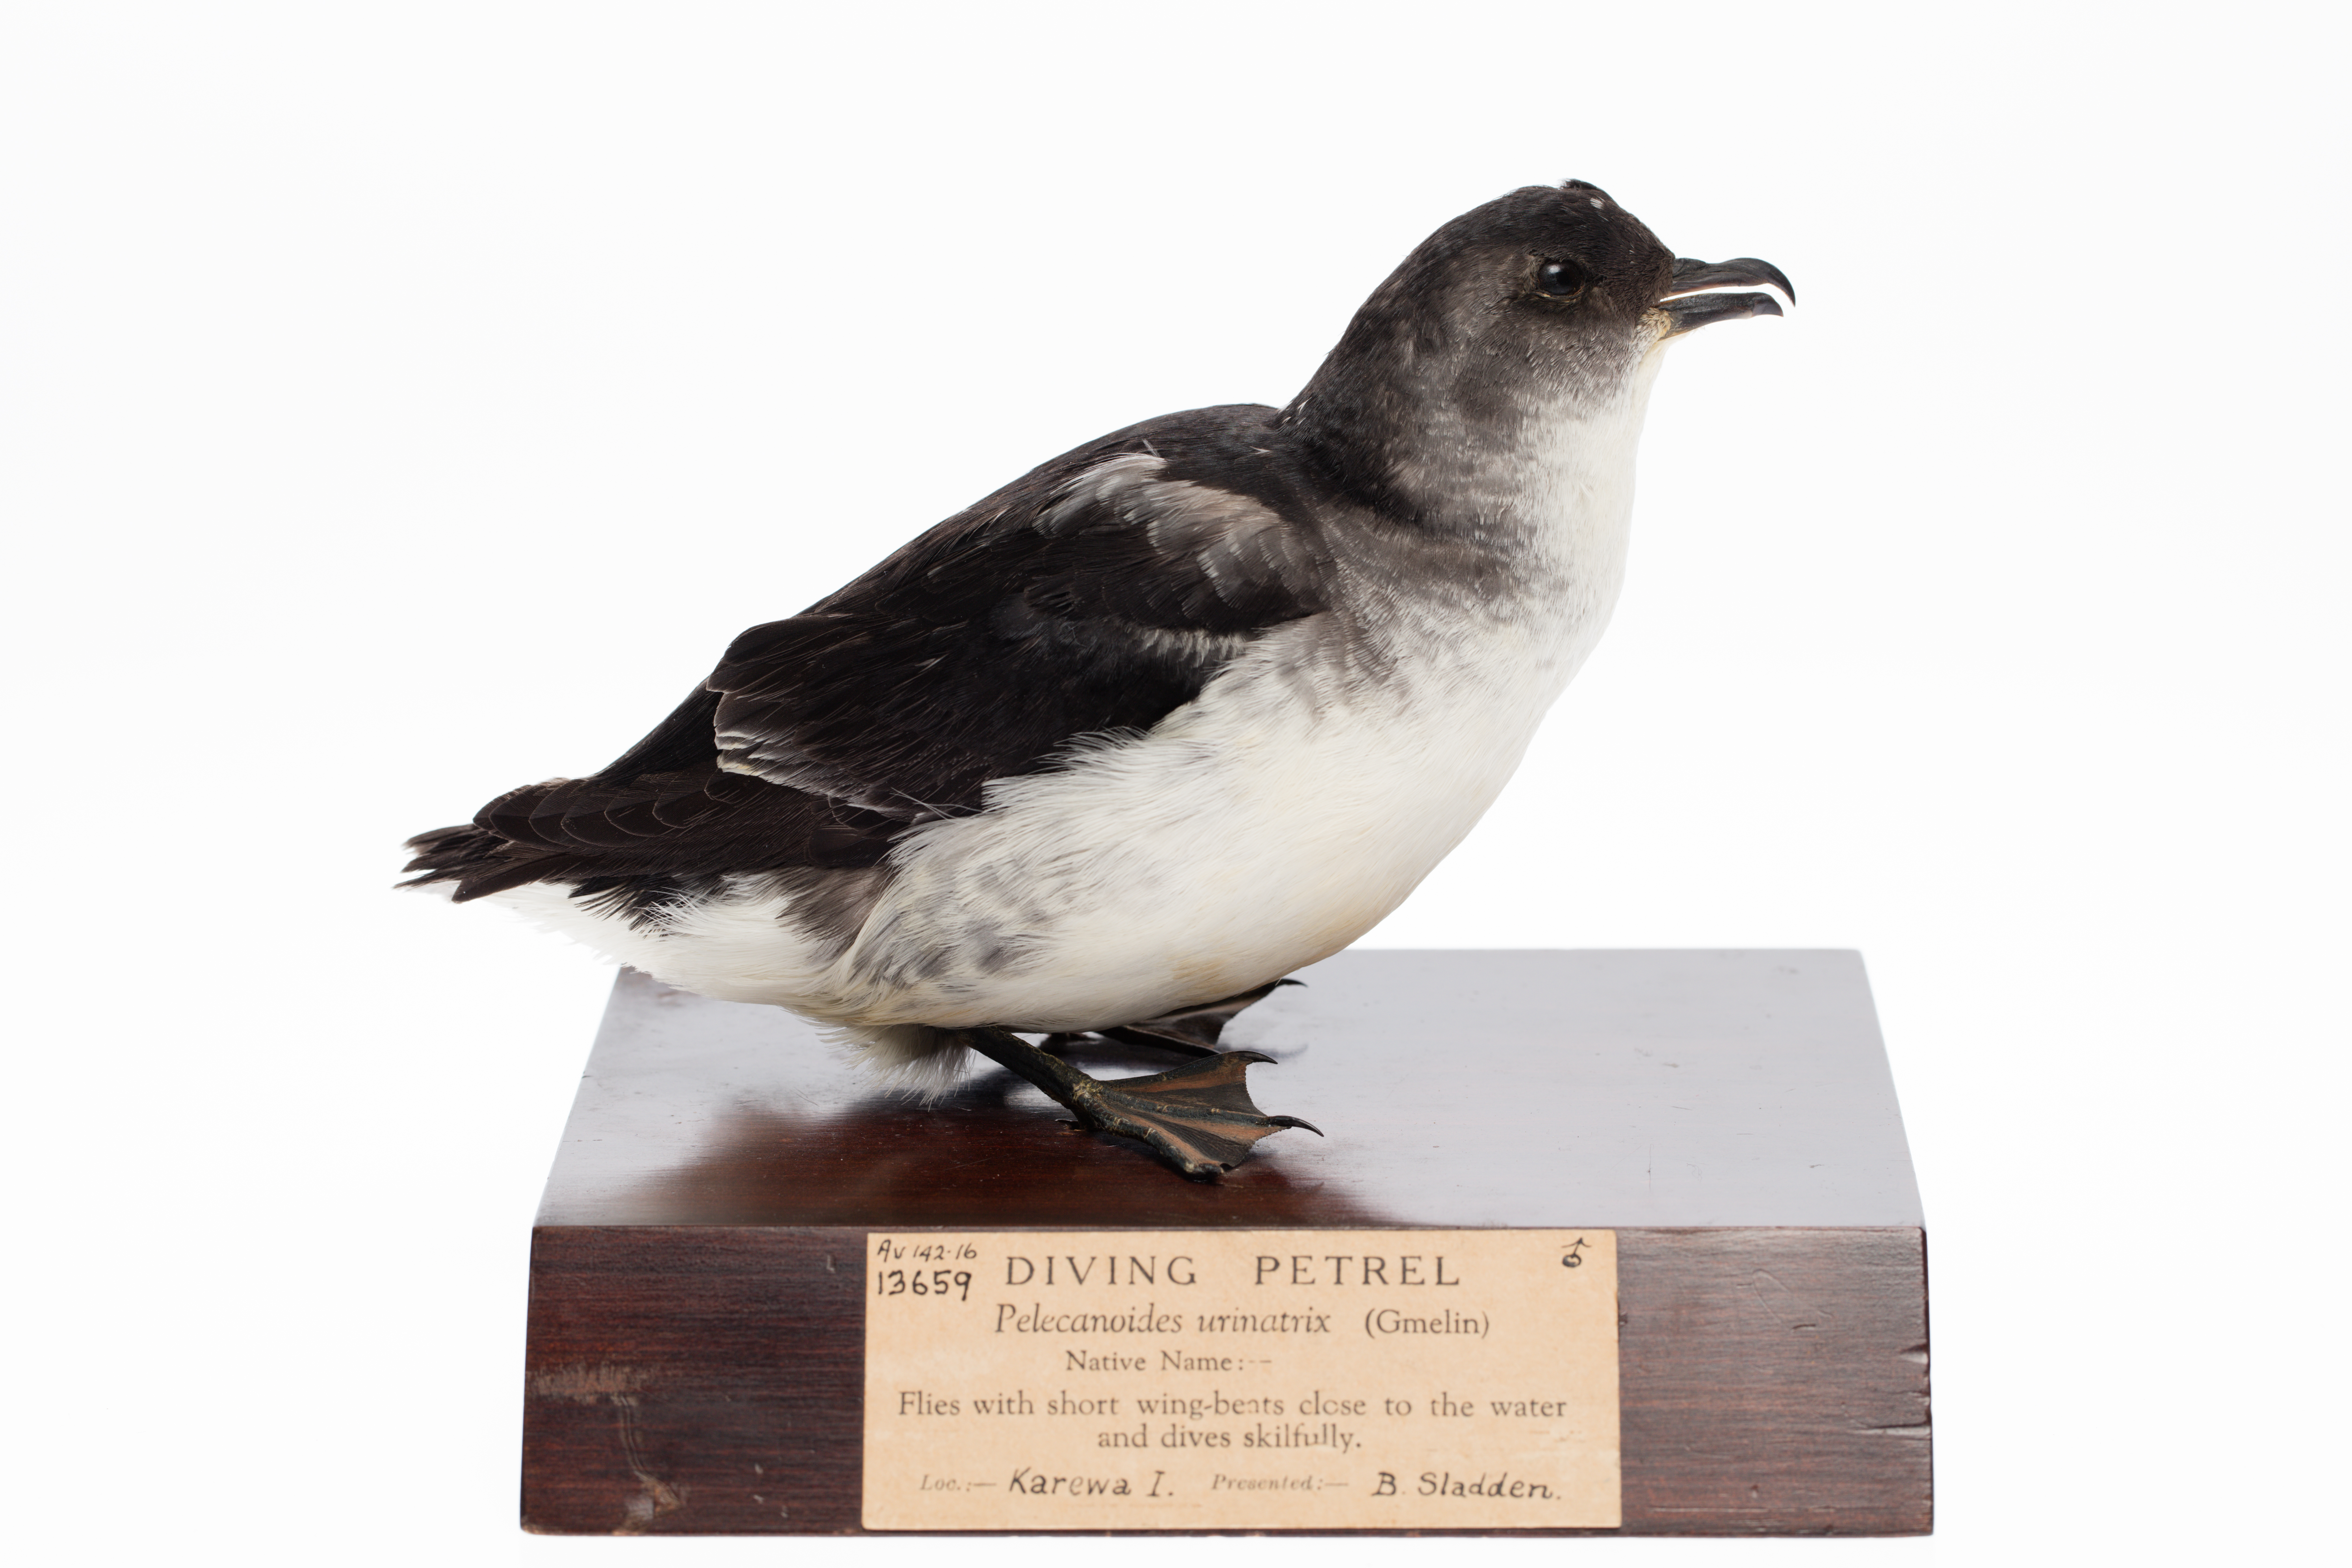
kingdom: Animalia
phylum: Chordata
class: Aves
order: Procellariiformes
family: Pelecanoididae
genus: Pelecanoides
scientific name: Pelecanoides urinatrix
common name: Common diving-petrel
